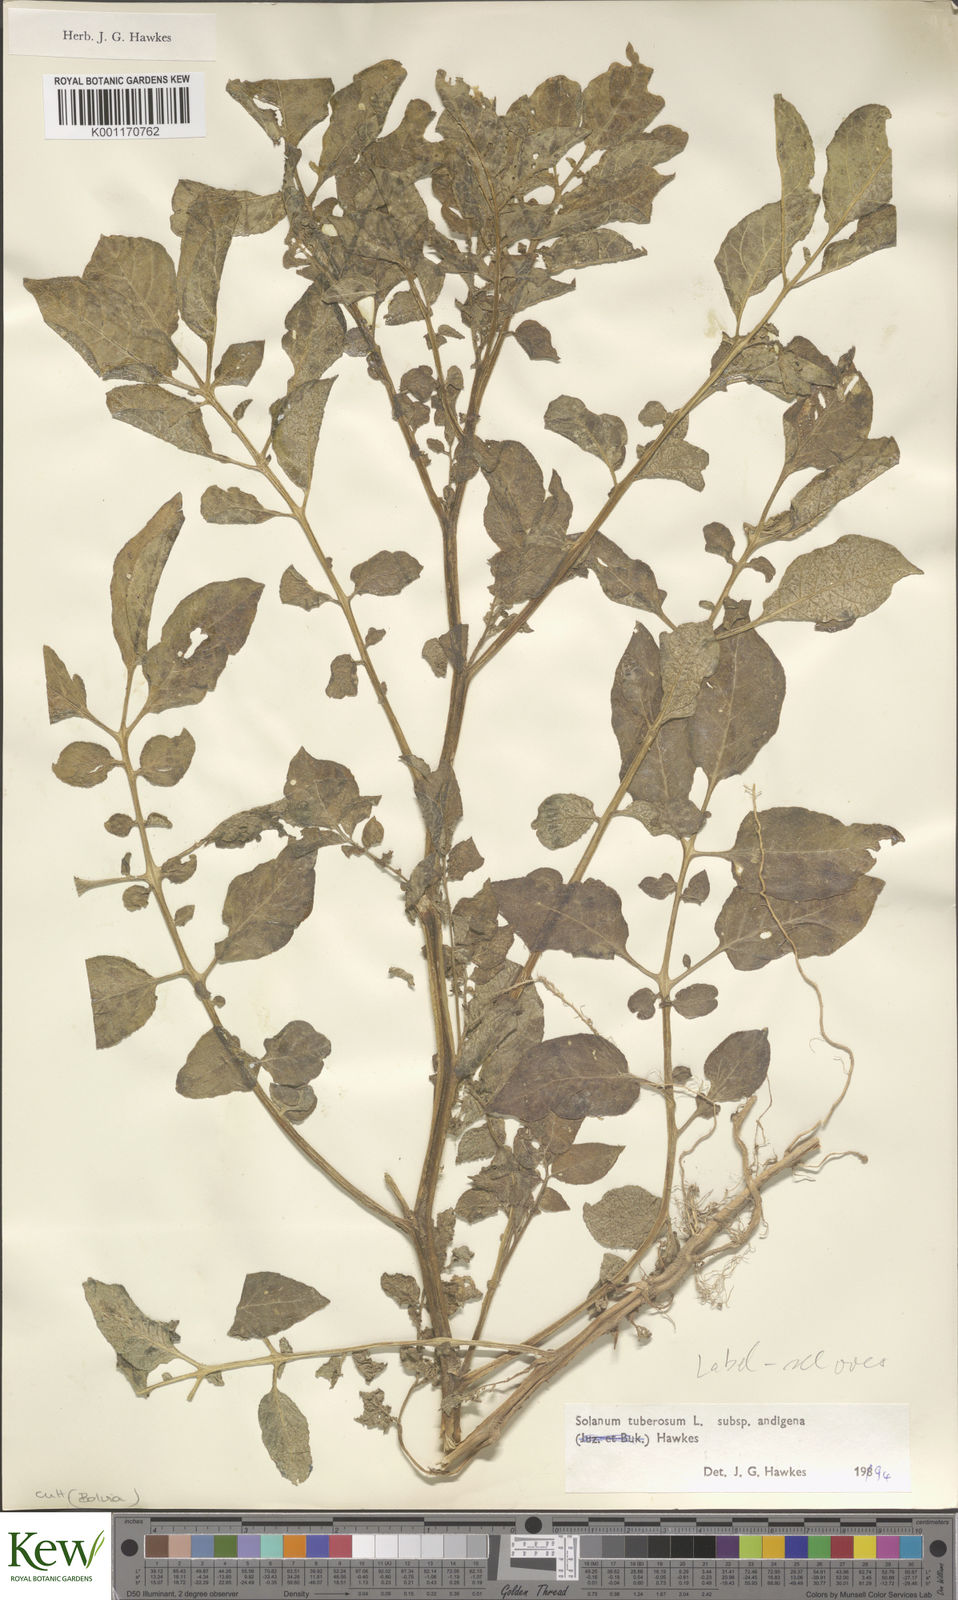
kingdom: Plantae
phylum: Tracheophyta
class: Magnoliopsida
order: Solanales
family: Solanaceae
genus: Solanum
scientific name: Solanum tuberosum
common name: Potato
